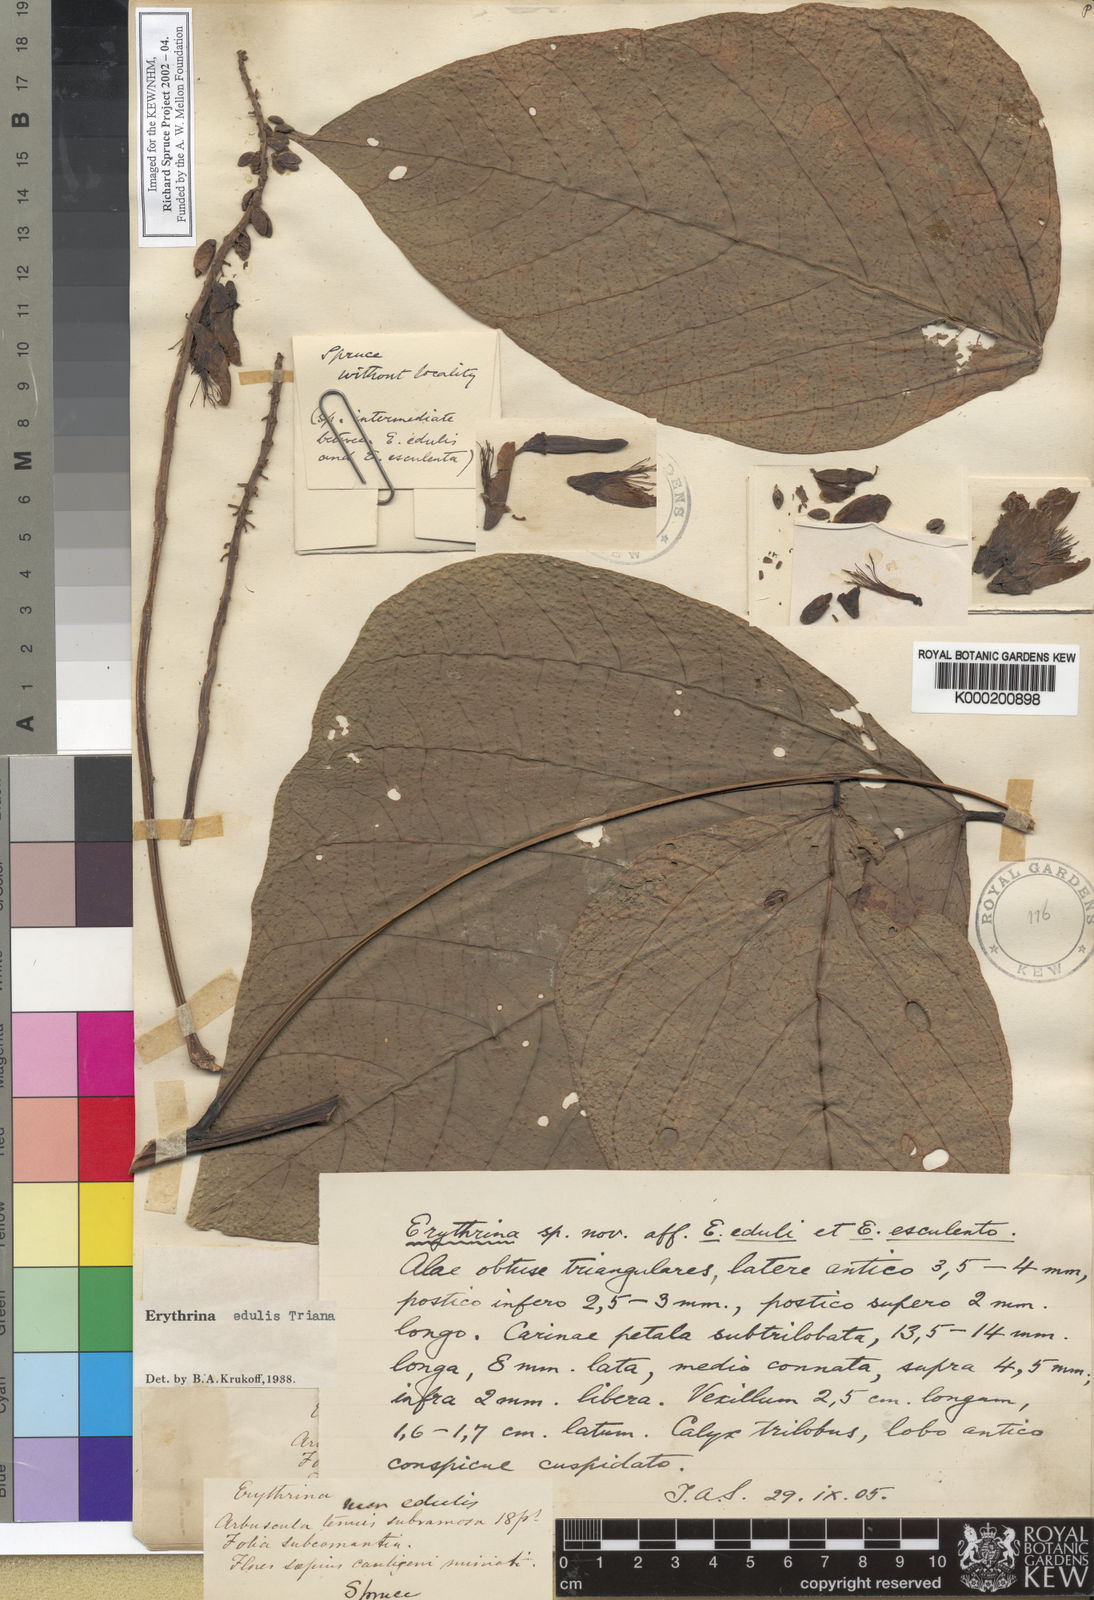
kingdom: Plantae
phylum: Tracheophyta
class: Magnoliopsida
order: Fabales
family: Fabaceae
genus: Erythrina
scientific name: Erythrina
